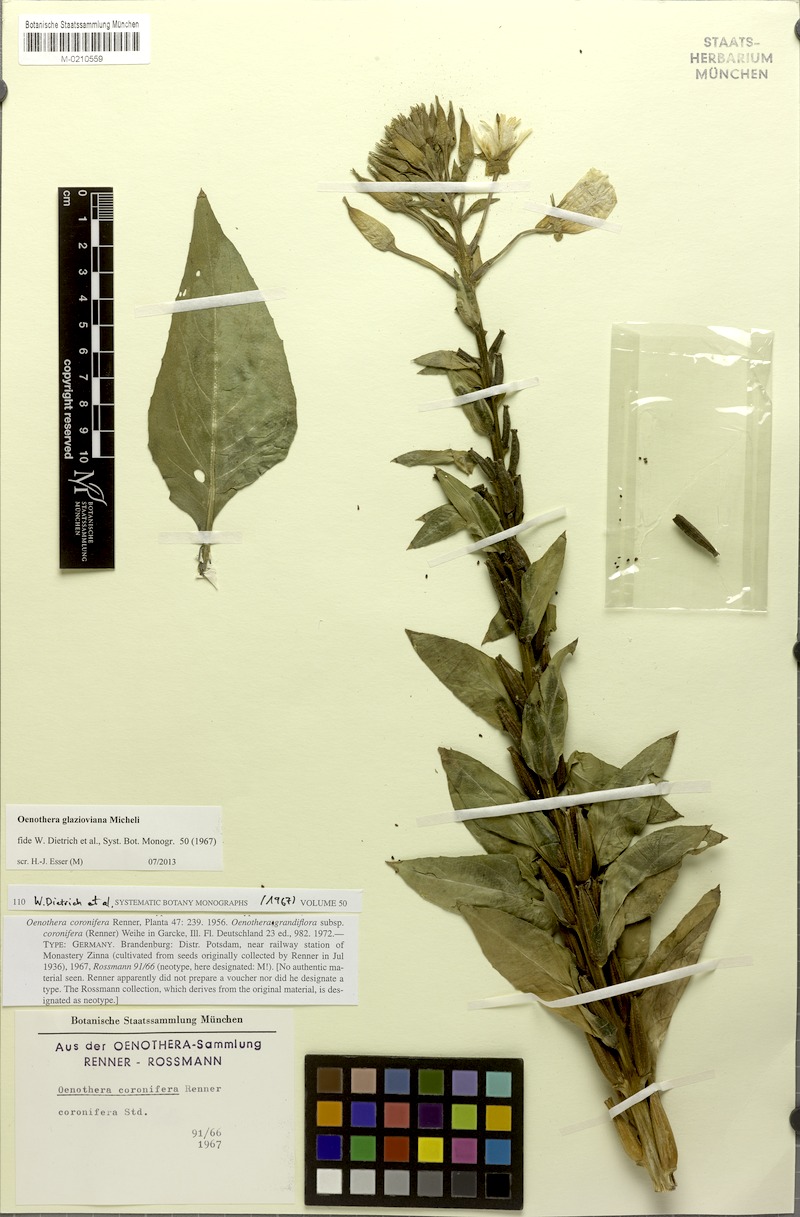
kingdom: Plantae
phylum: Tracheophyta
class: Magnoliopsida
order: Myrtales
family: Onagraceae
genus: Oenothera
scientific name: Oenothera glazioviana
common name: Large-flowered evening-primrose
